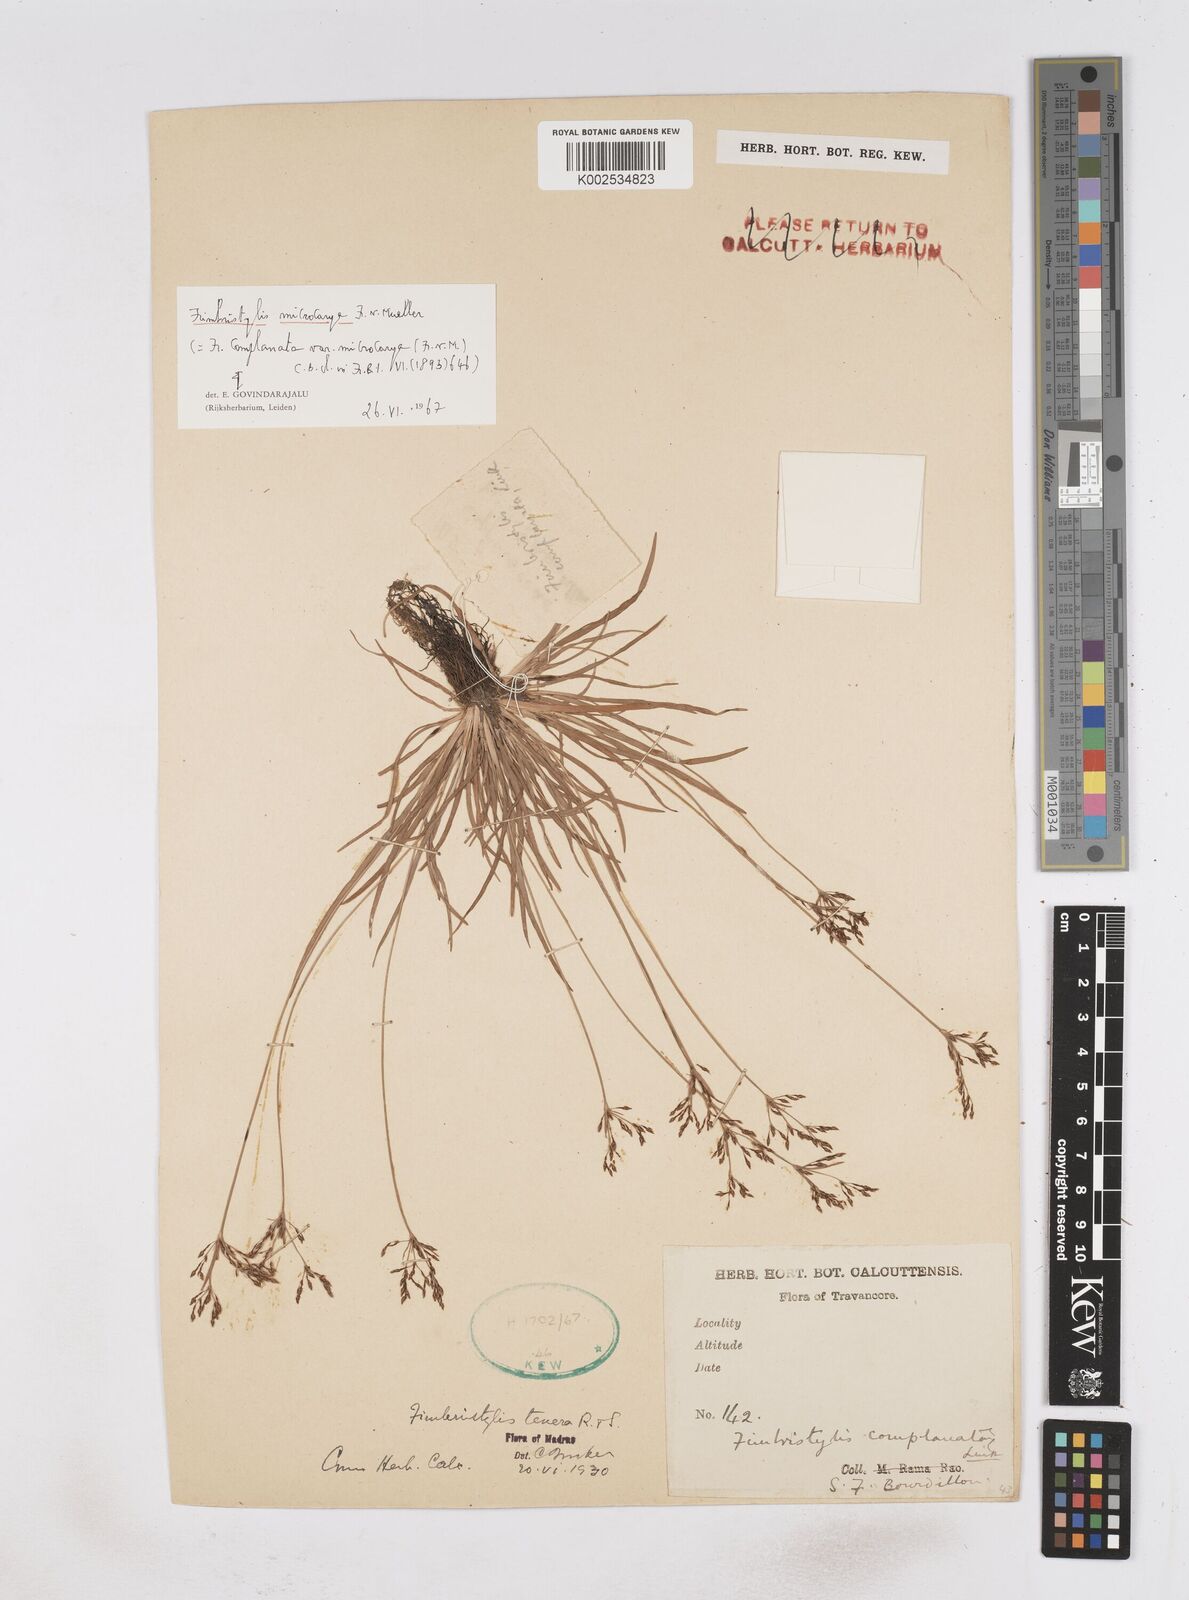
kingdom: Plantae
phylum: Tracheophyta
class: Liliopsida
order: Poales
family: Cyperaceae
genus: Fimbristylis
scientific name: Fimbristylis microcarya
